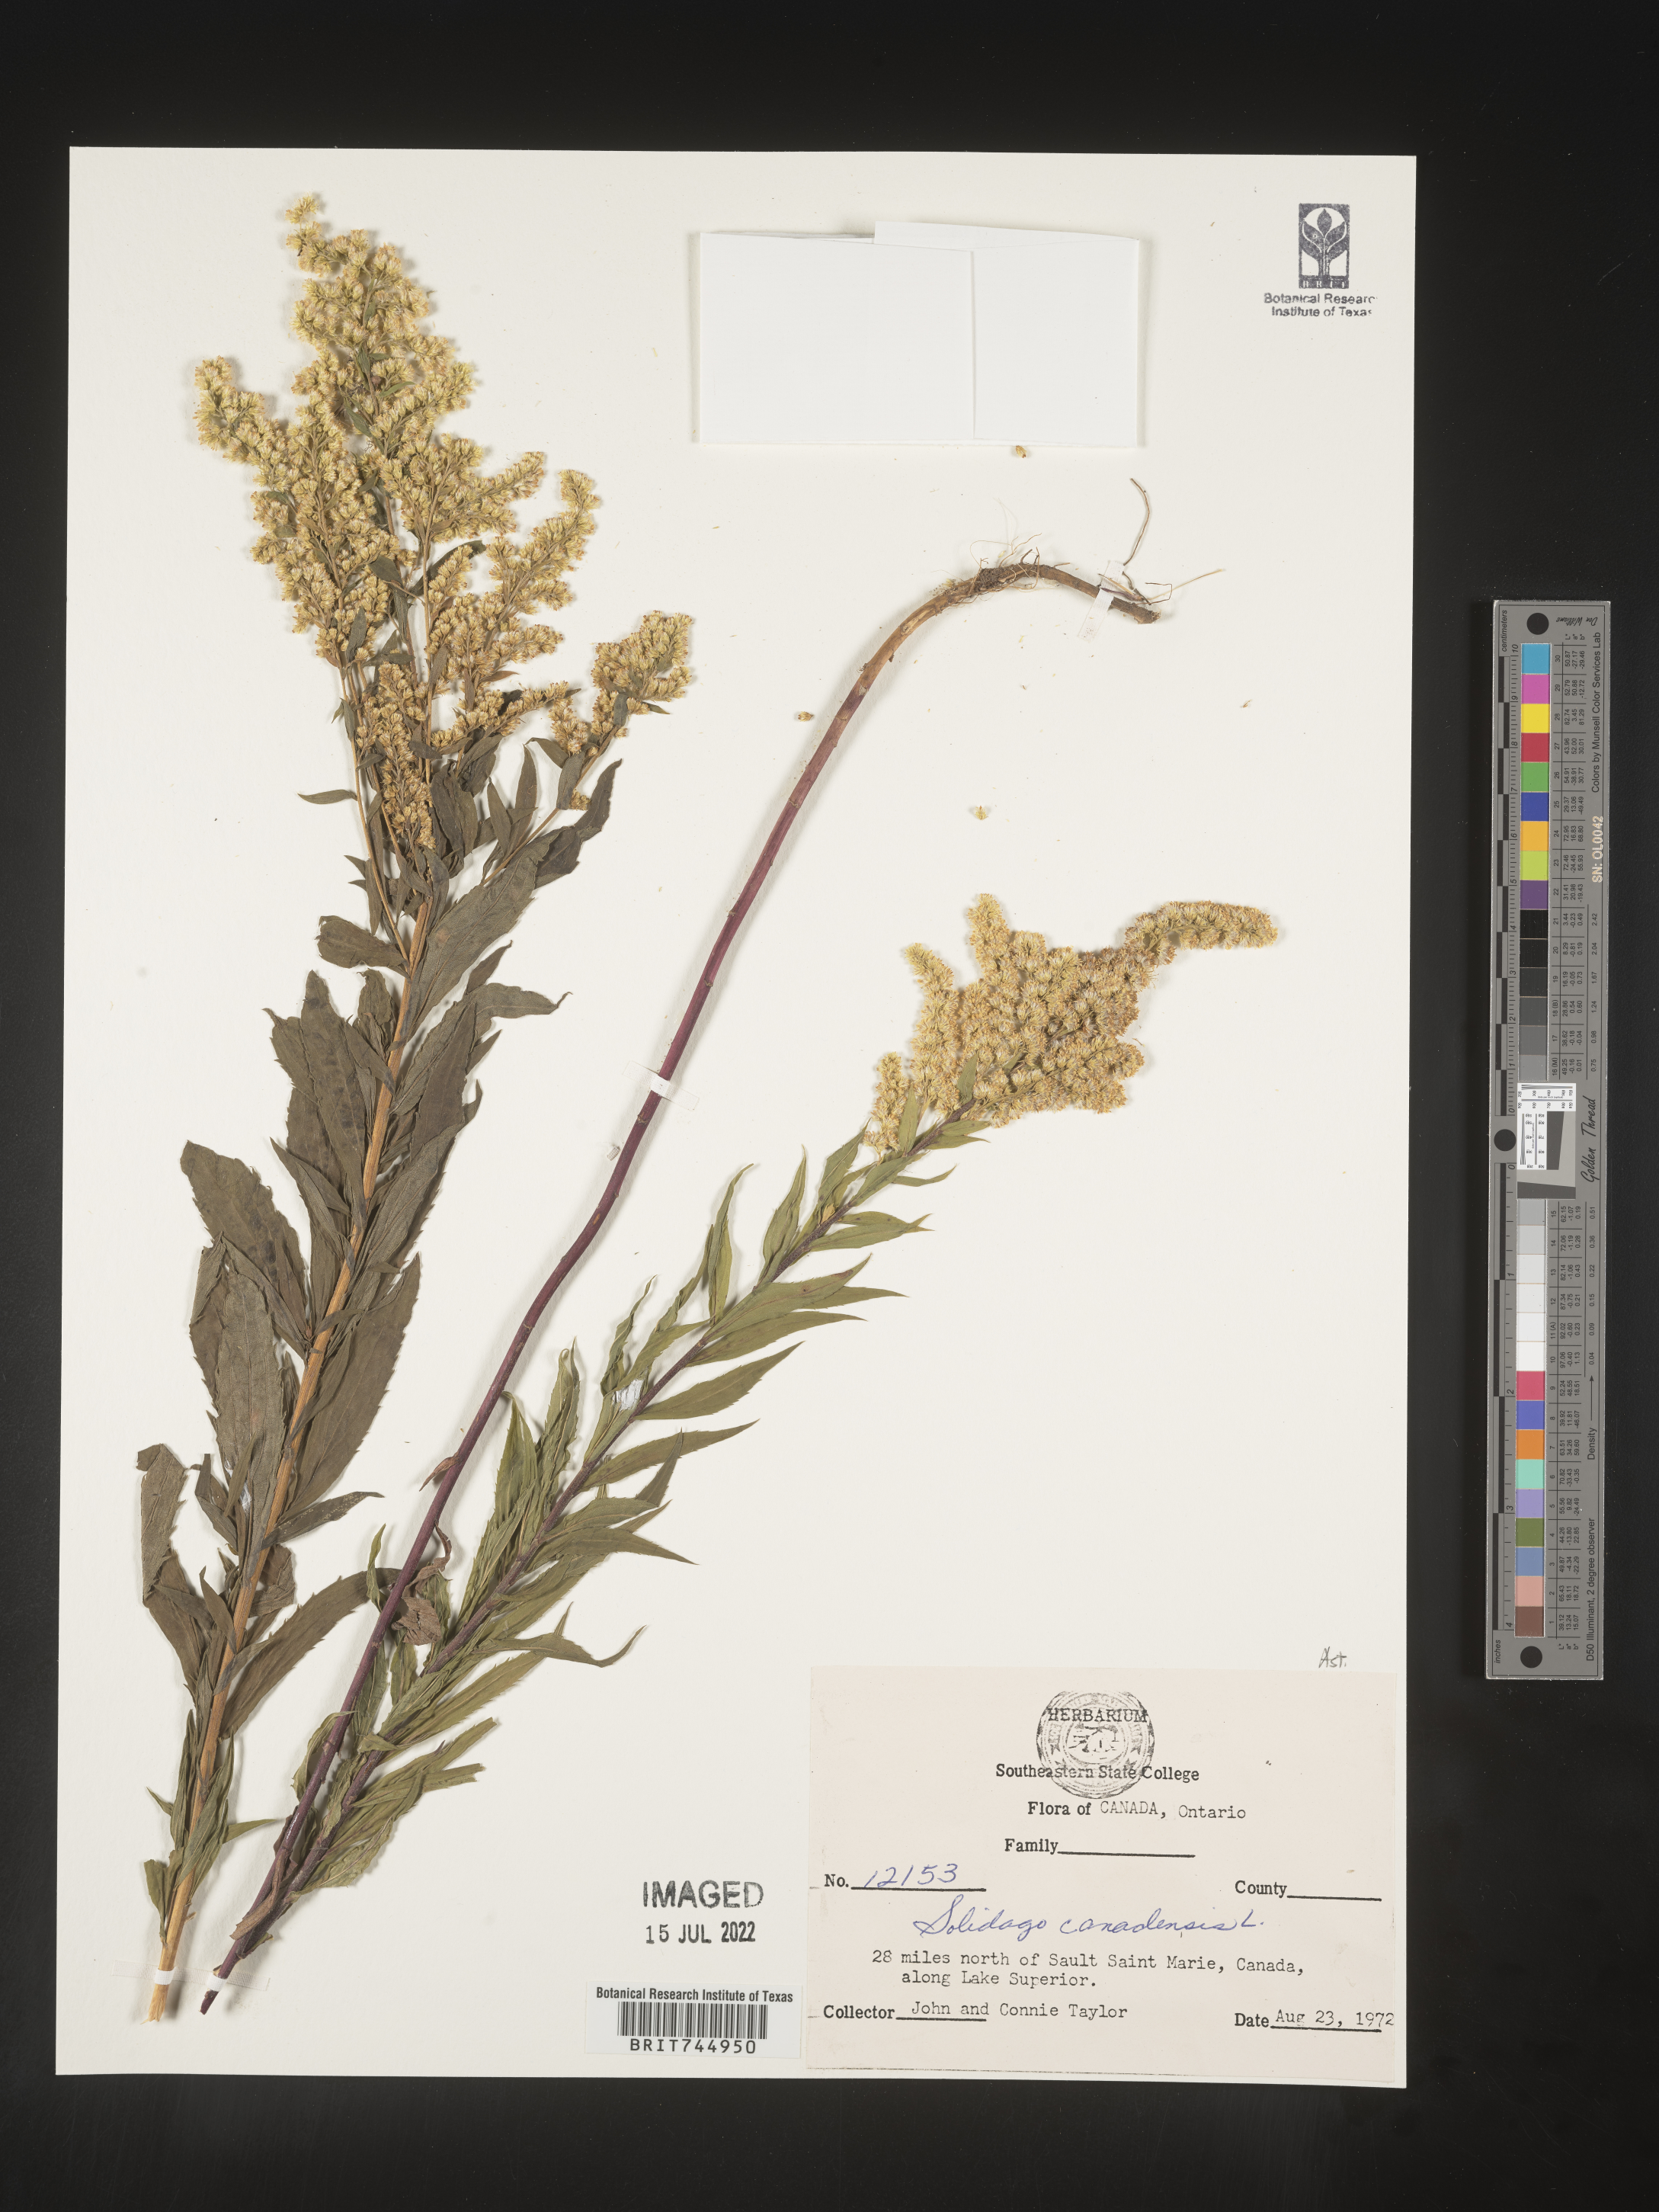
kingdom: Plantae
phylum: Tracheophyta
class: Magnoliopsida
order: Asterales
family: Asteraceae
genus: Solidago
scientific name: Solidago canadensis
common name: Canada goldenrod
